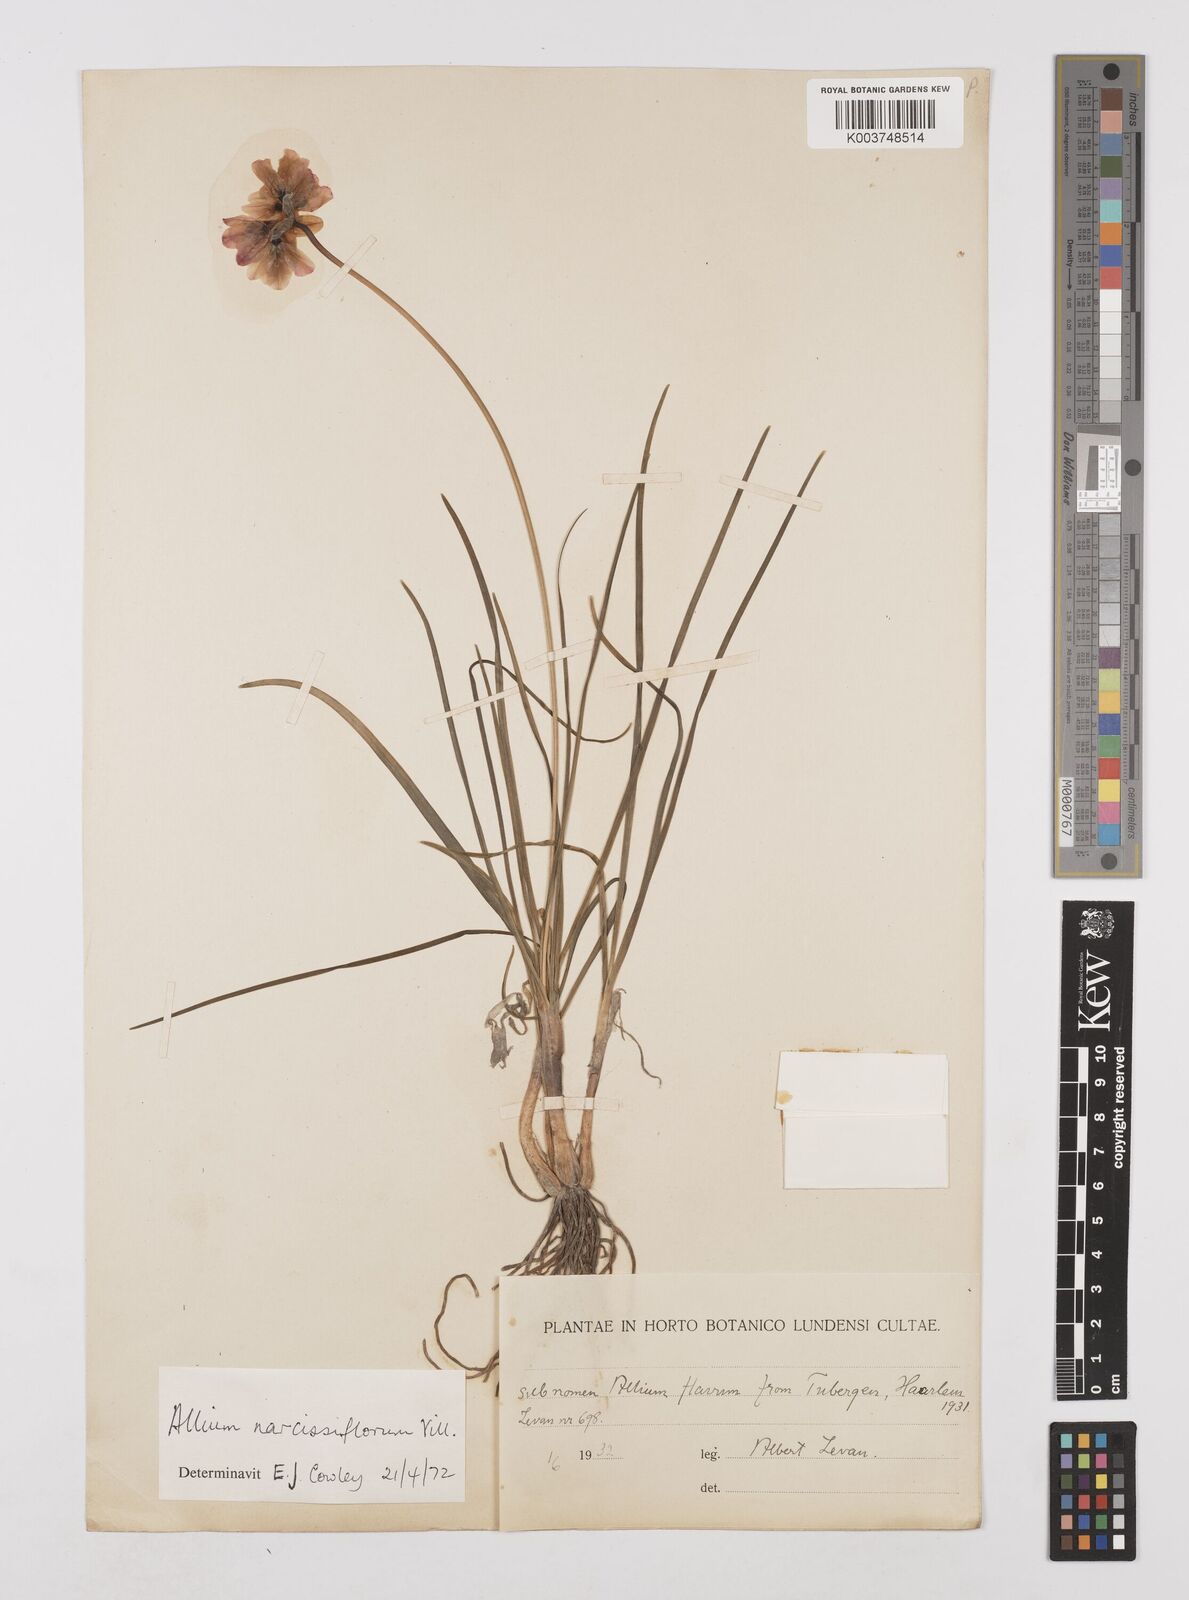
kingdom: Plantae
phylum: Tracheophyta
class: Liliopsida
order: Asparagales
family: Amaryllidaceae
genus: Allium
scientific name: Allium narcissiflorum
